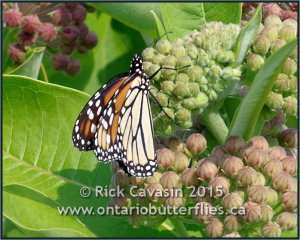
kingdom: Animalia
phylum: Arthropoda
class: Insecta
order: Lepidoptera
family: Nymphalidae
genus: Danaus
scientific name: Danaus plexippus
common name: Monarch
